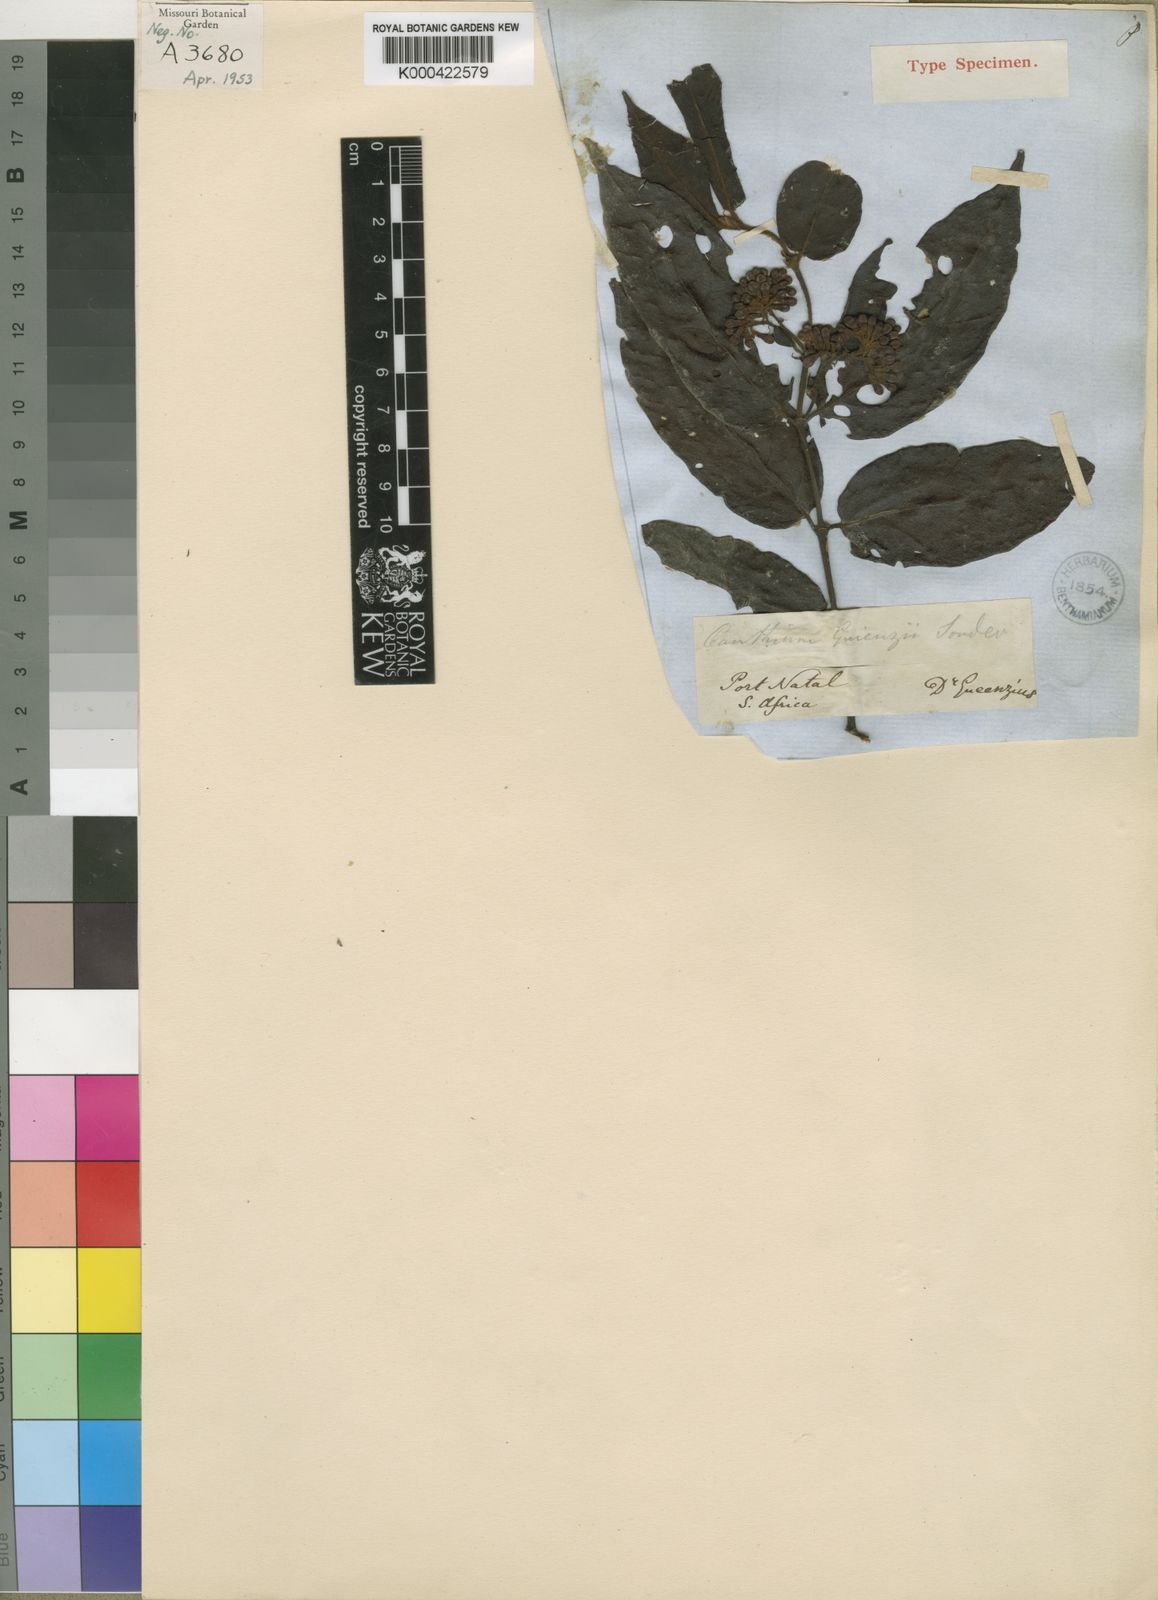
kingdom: Plantae
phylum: Tracheophyta
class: Magnoliopsida
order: Gentianales
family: Rubiaceae
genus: Keetia
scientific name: Keetia gueinzii
